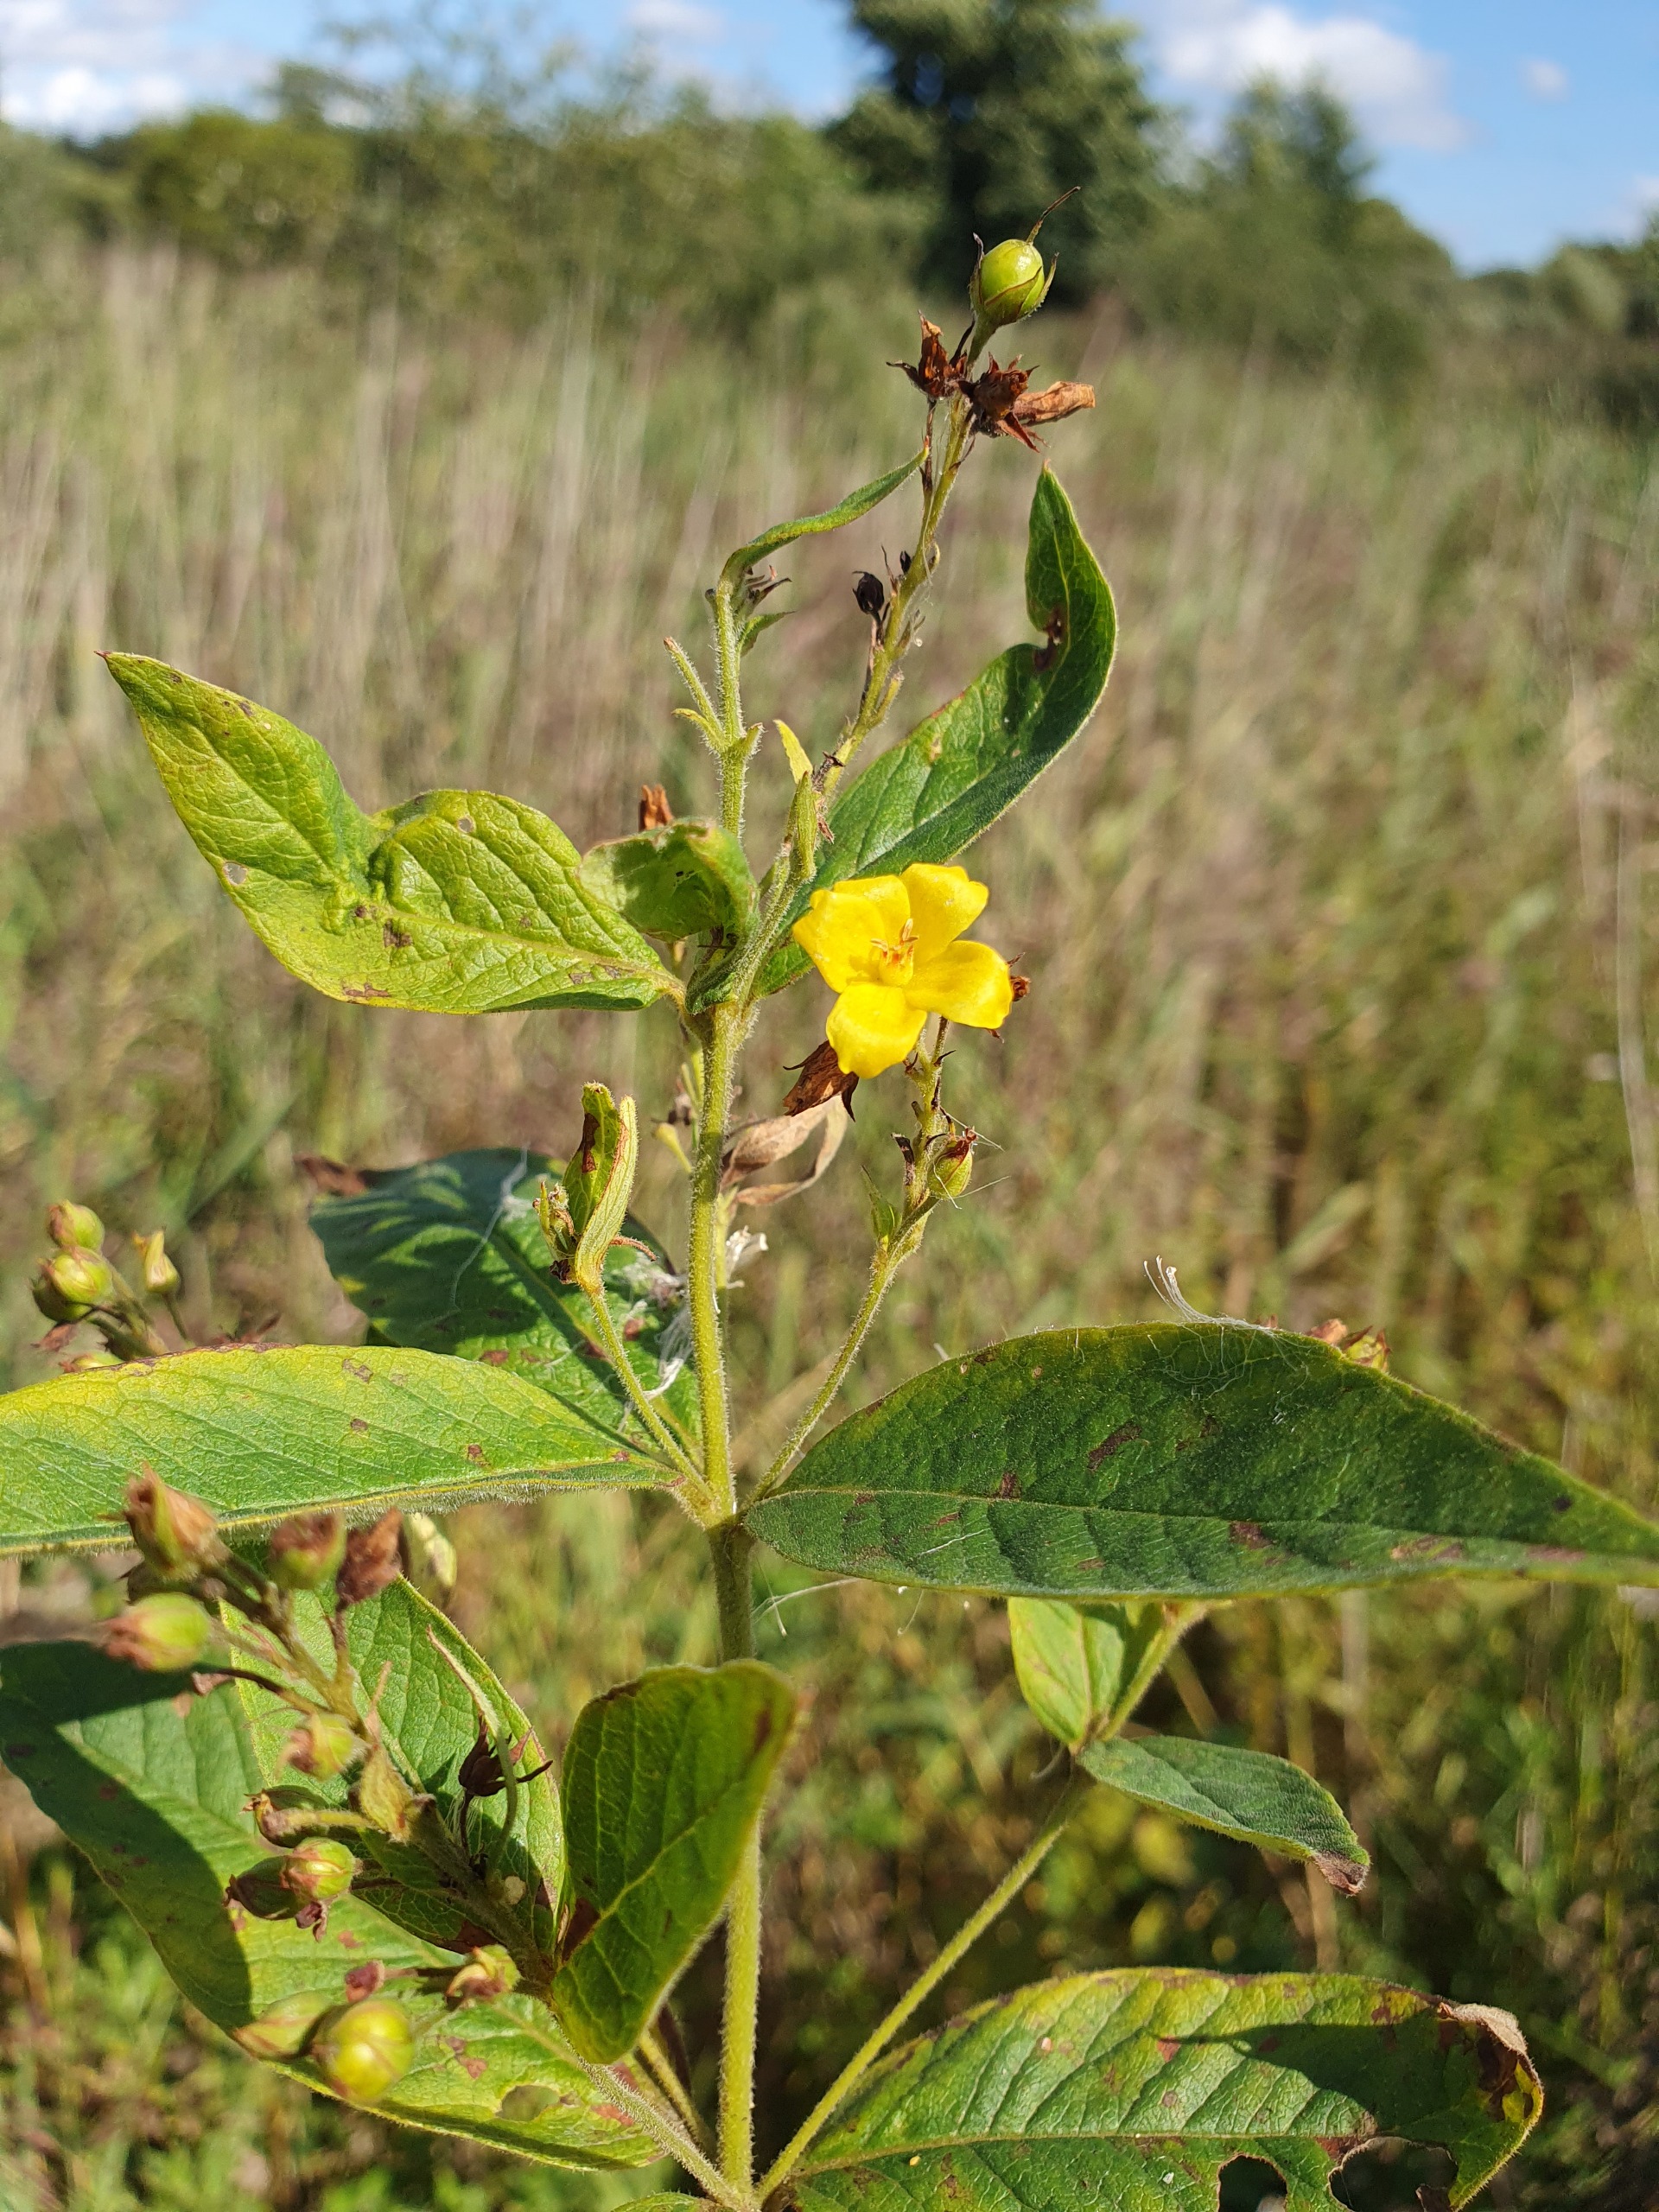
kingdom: Plantae
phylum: Tracheophyta
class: Magnoliopsida
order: Ericales
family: Primulaceae
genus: Lysimachia
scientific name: Lysimachia vulgaris
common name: Almindelig fredløs
